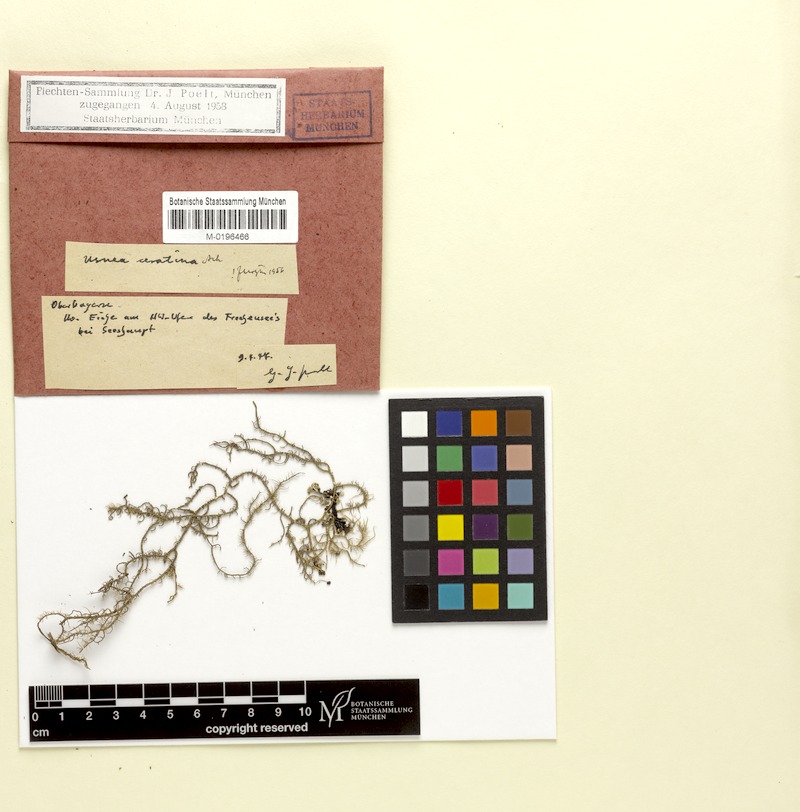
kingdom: Fungi
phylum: Ascomycota
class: Lecanoromycetes
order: Lecanorales
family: Parmeliaceae
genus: Usnea
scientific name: Usnea ceratina
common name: Warty beard lichen
